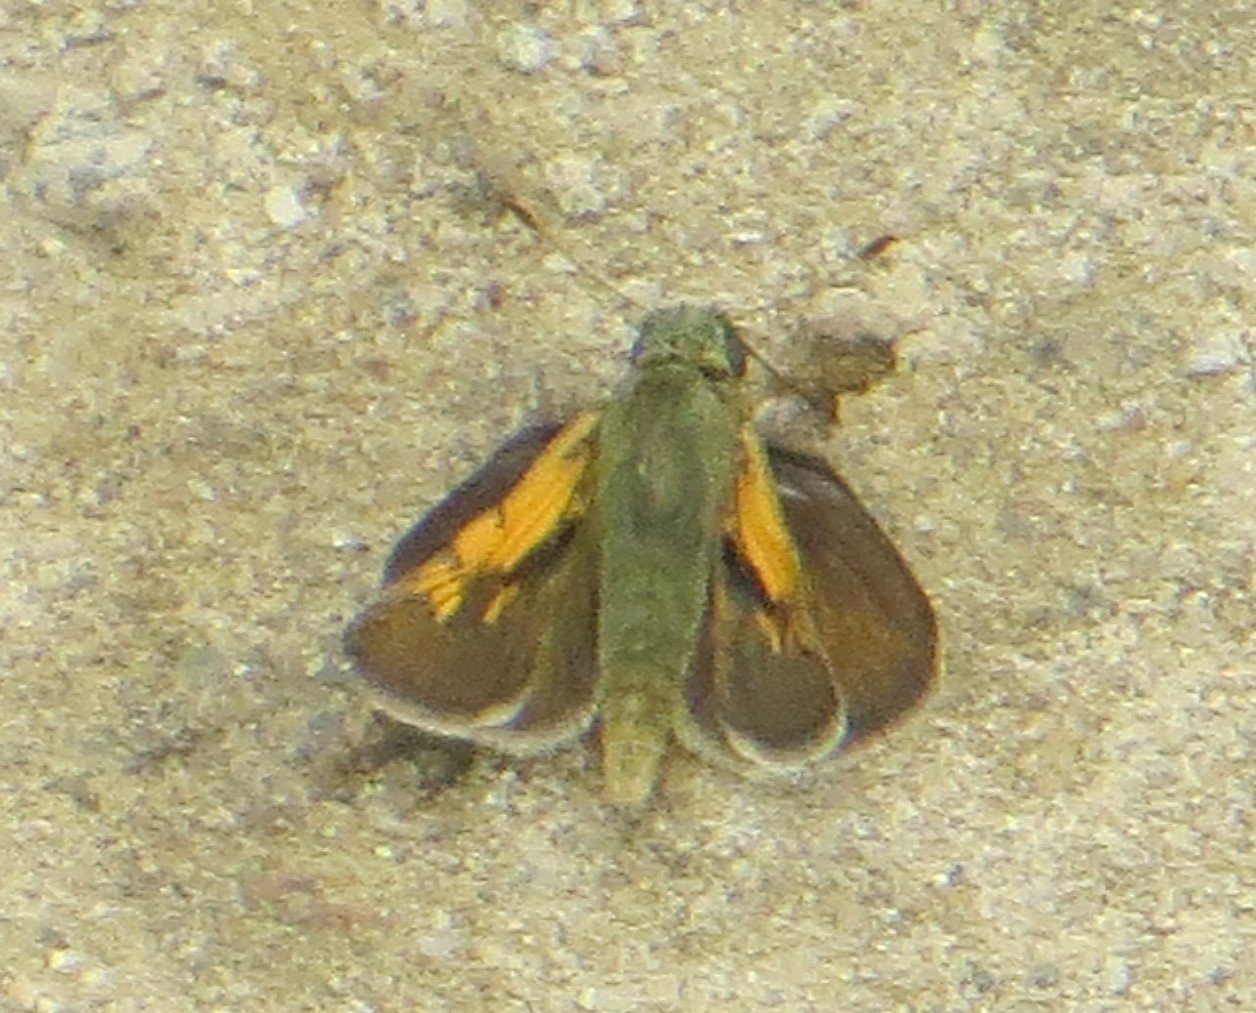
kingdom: Animalia
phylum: Arthropoda
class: Insecta
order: Lepidoptera
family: Hesperiidae
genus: Polites
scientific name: Polites themistocles
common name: Tawny-edged Skipper
